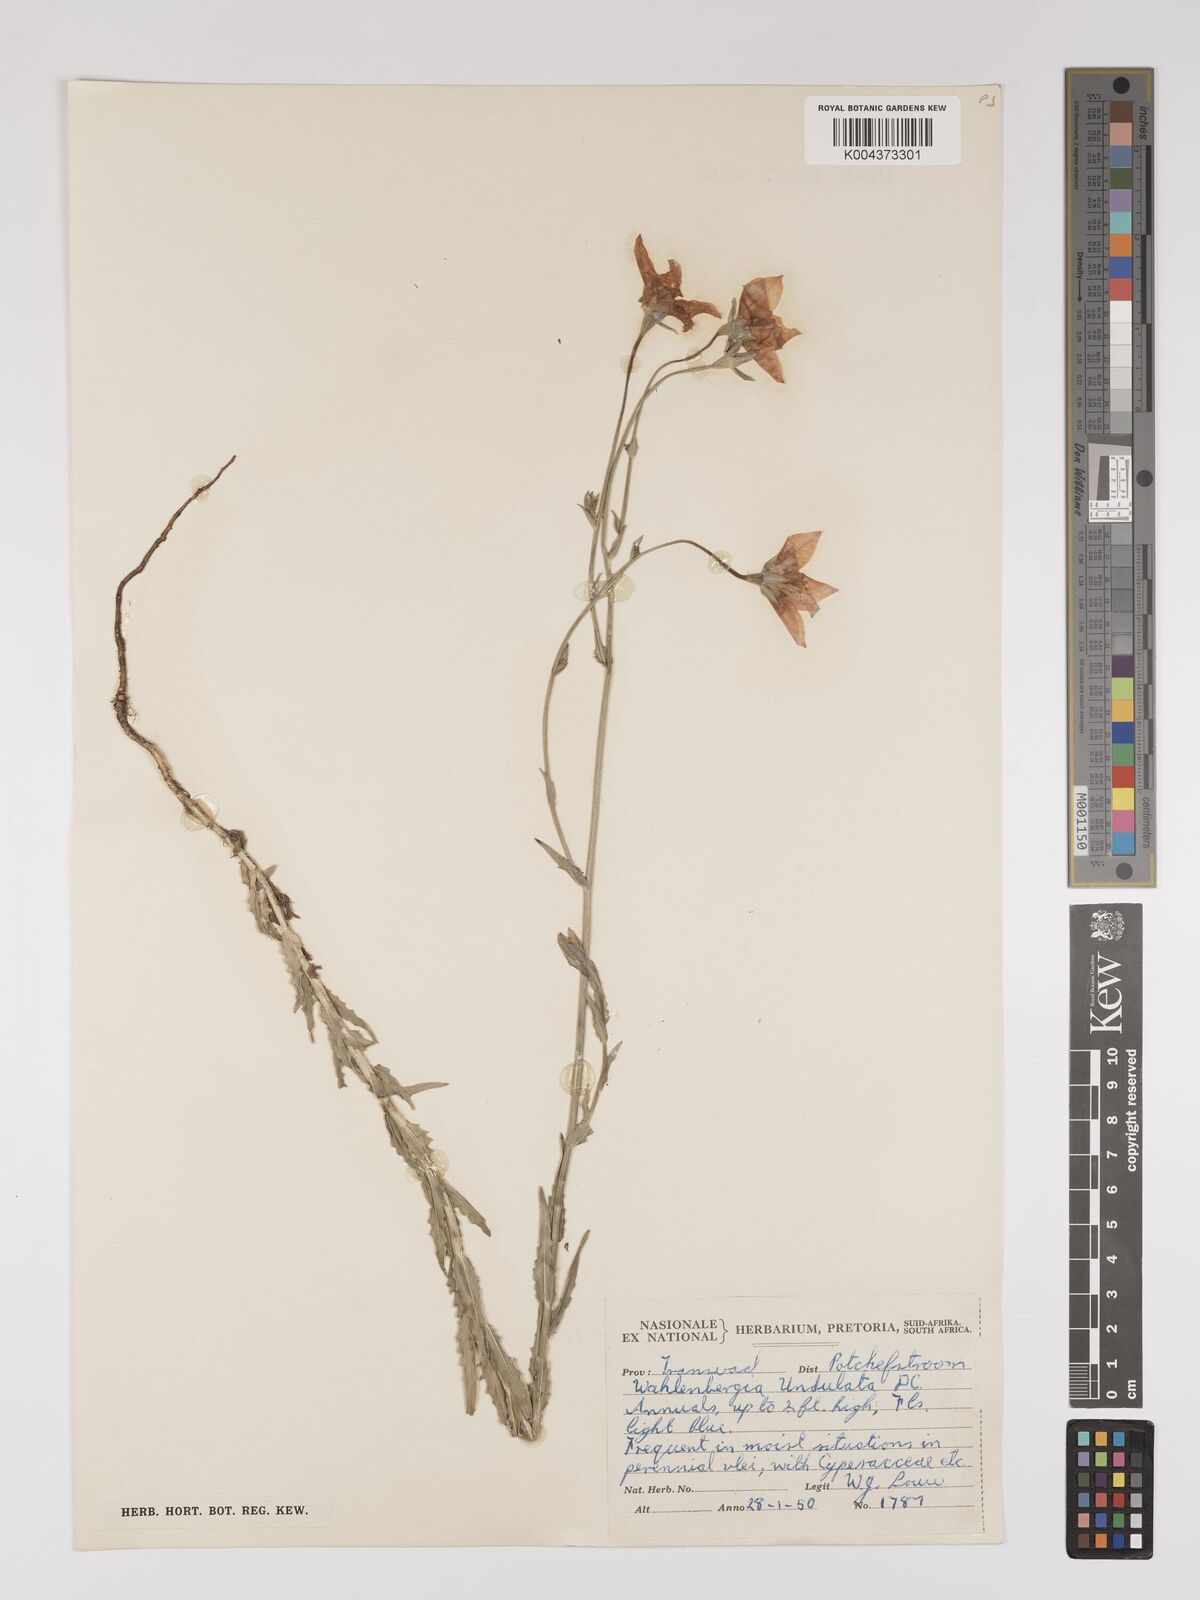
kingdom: Plantae
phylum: Tracheophyta
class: Magnoliopsida
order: Asterales
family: Campanulaceae
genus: Wahlenbergia
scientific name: Wahlenbergia undulata
